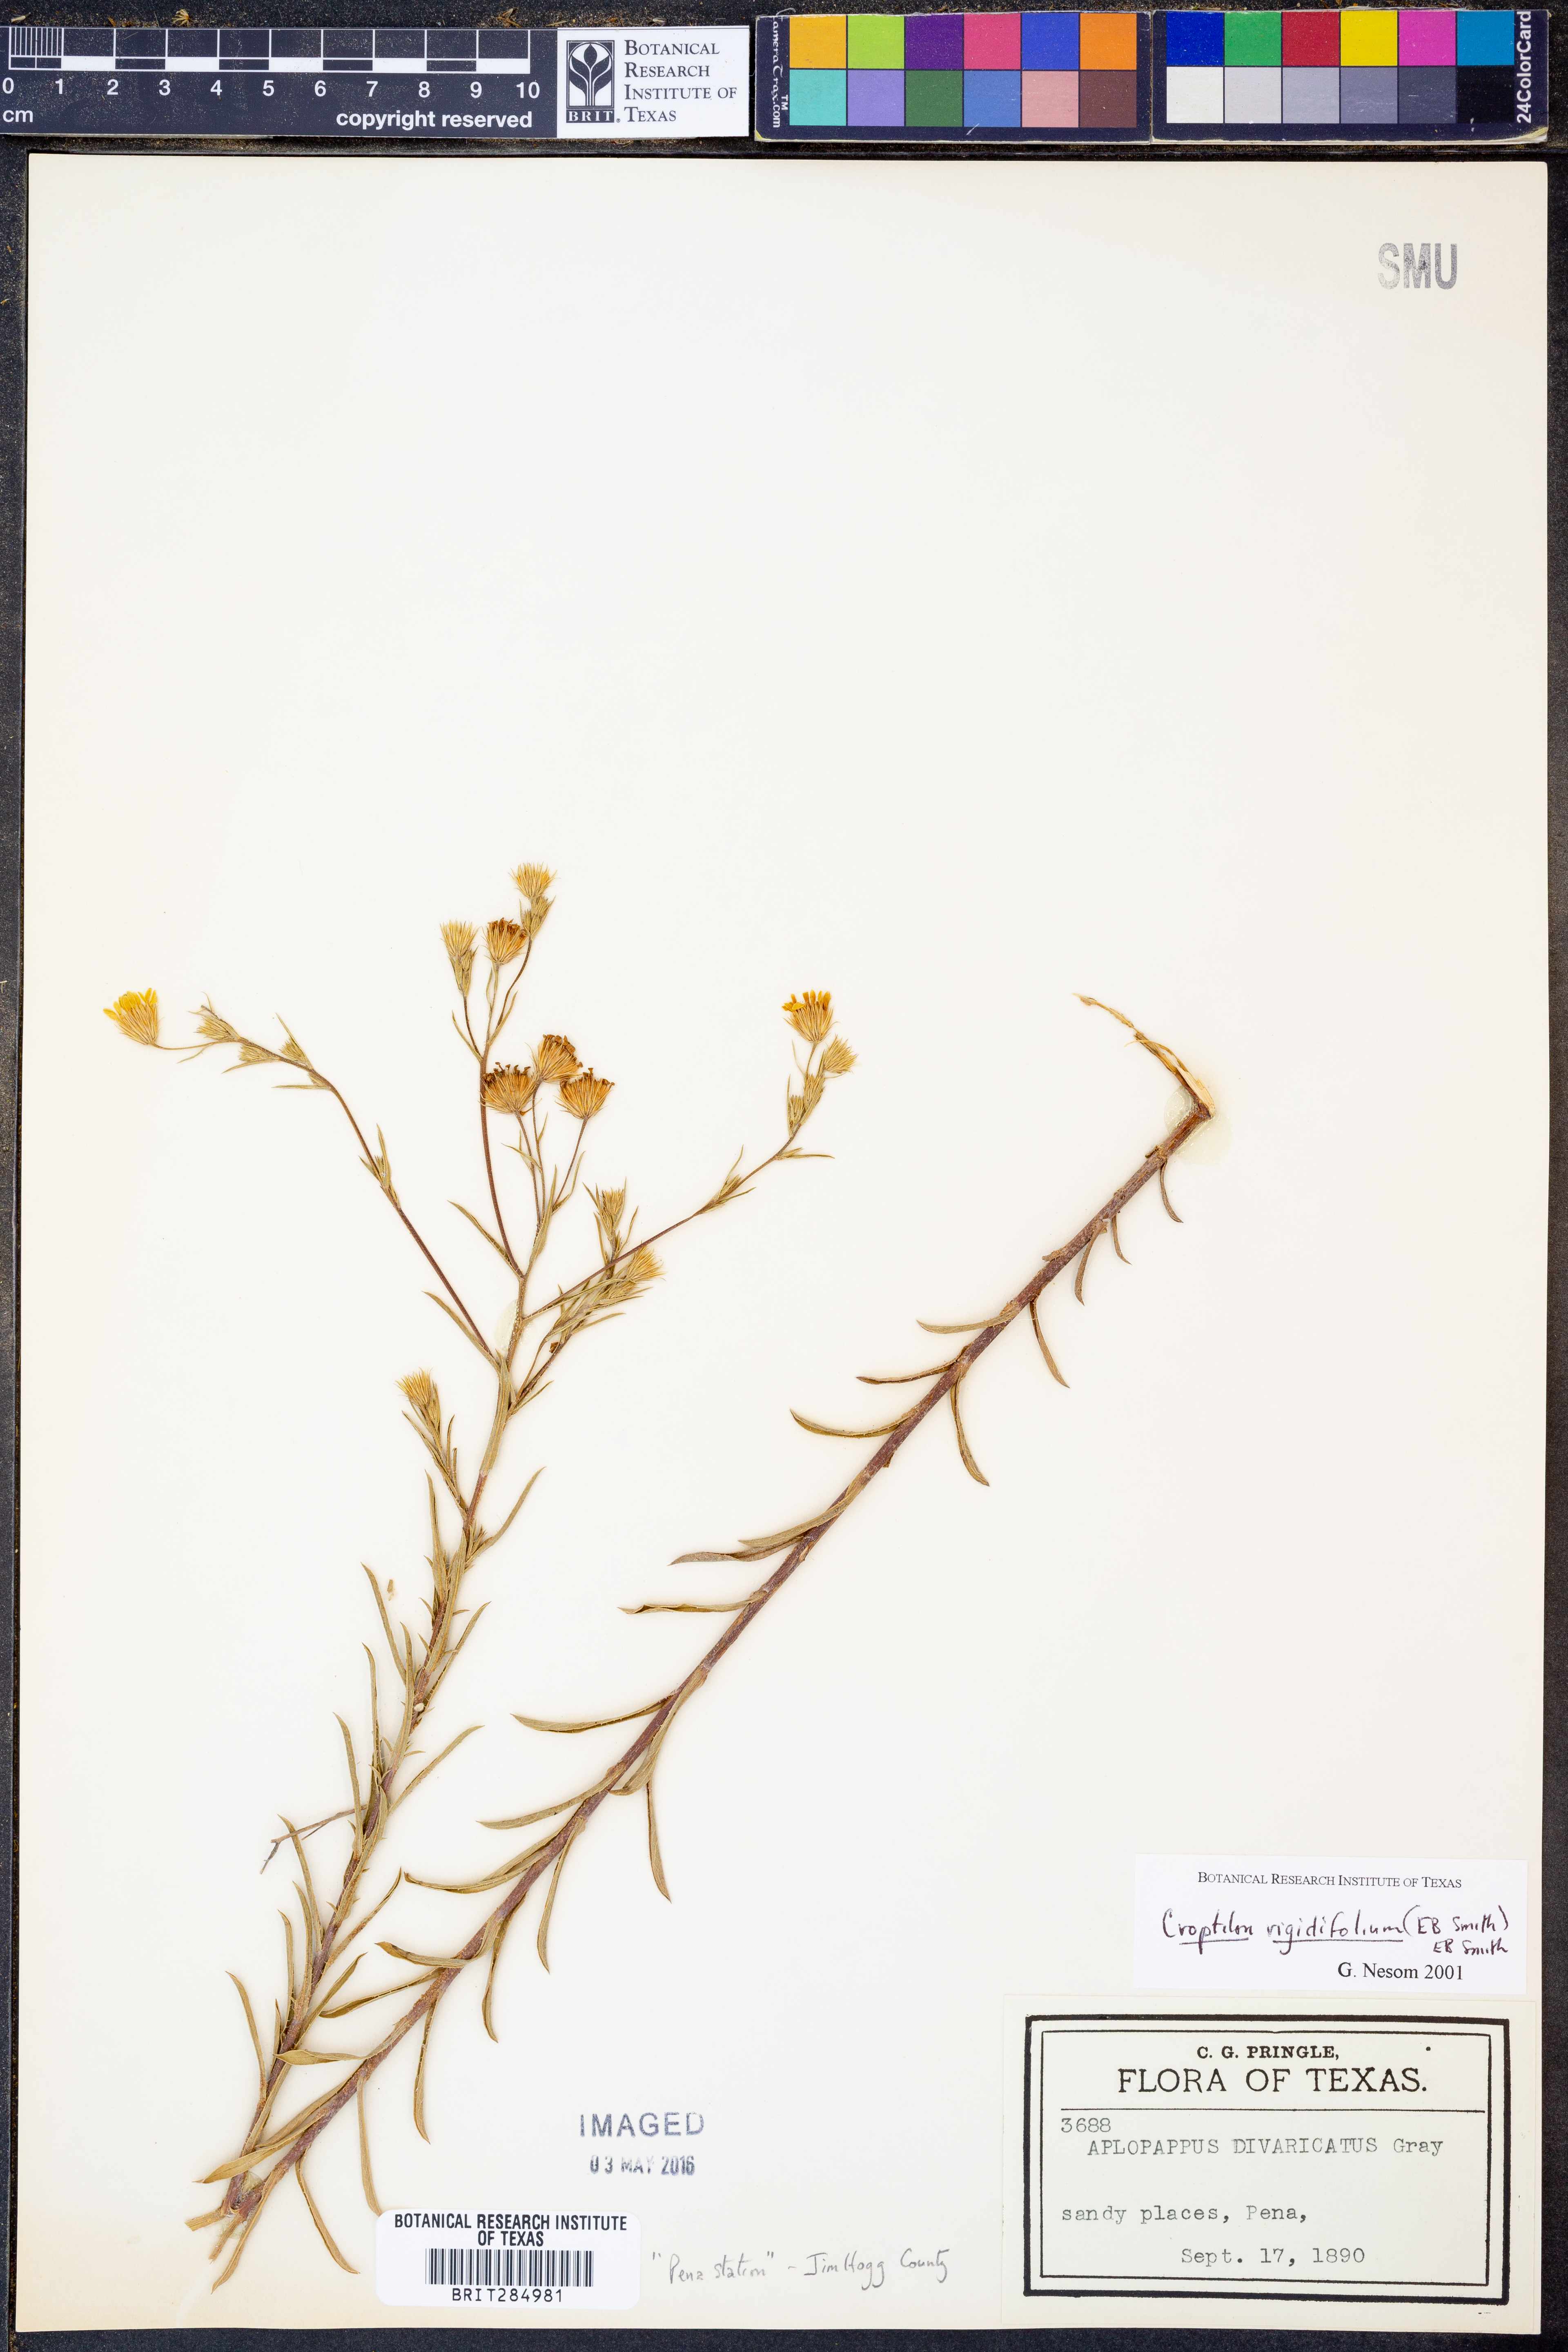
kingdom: Plantae
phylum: Tracheophyta
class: Magnoliopsida
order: Asterales
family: Asteraceae
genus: Croptilon
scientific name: Croptilon rigidifolium
